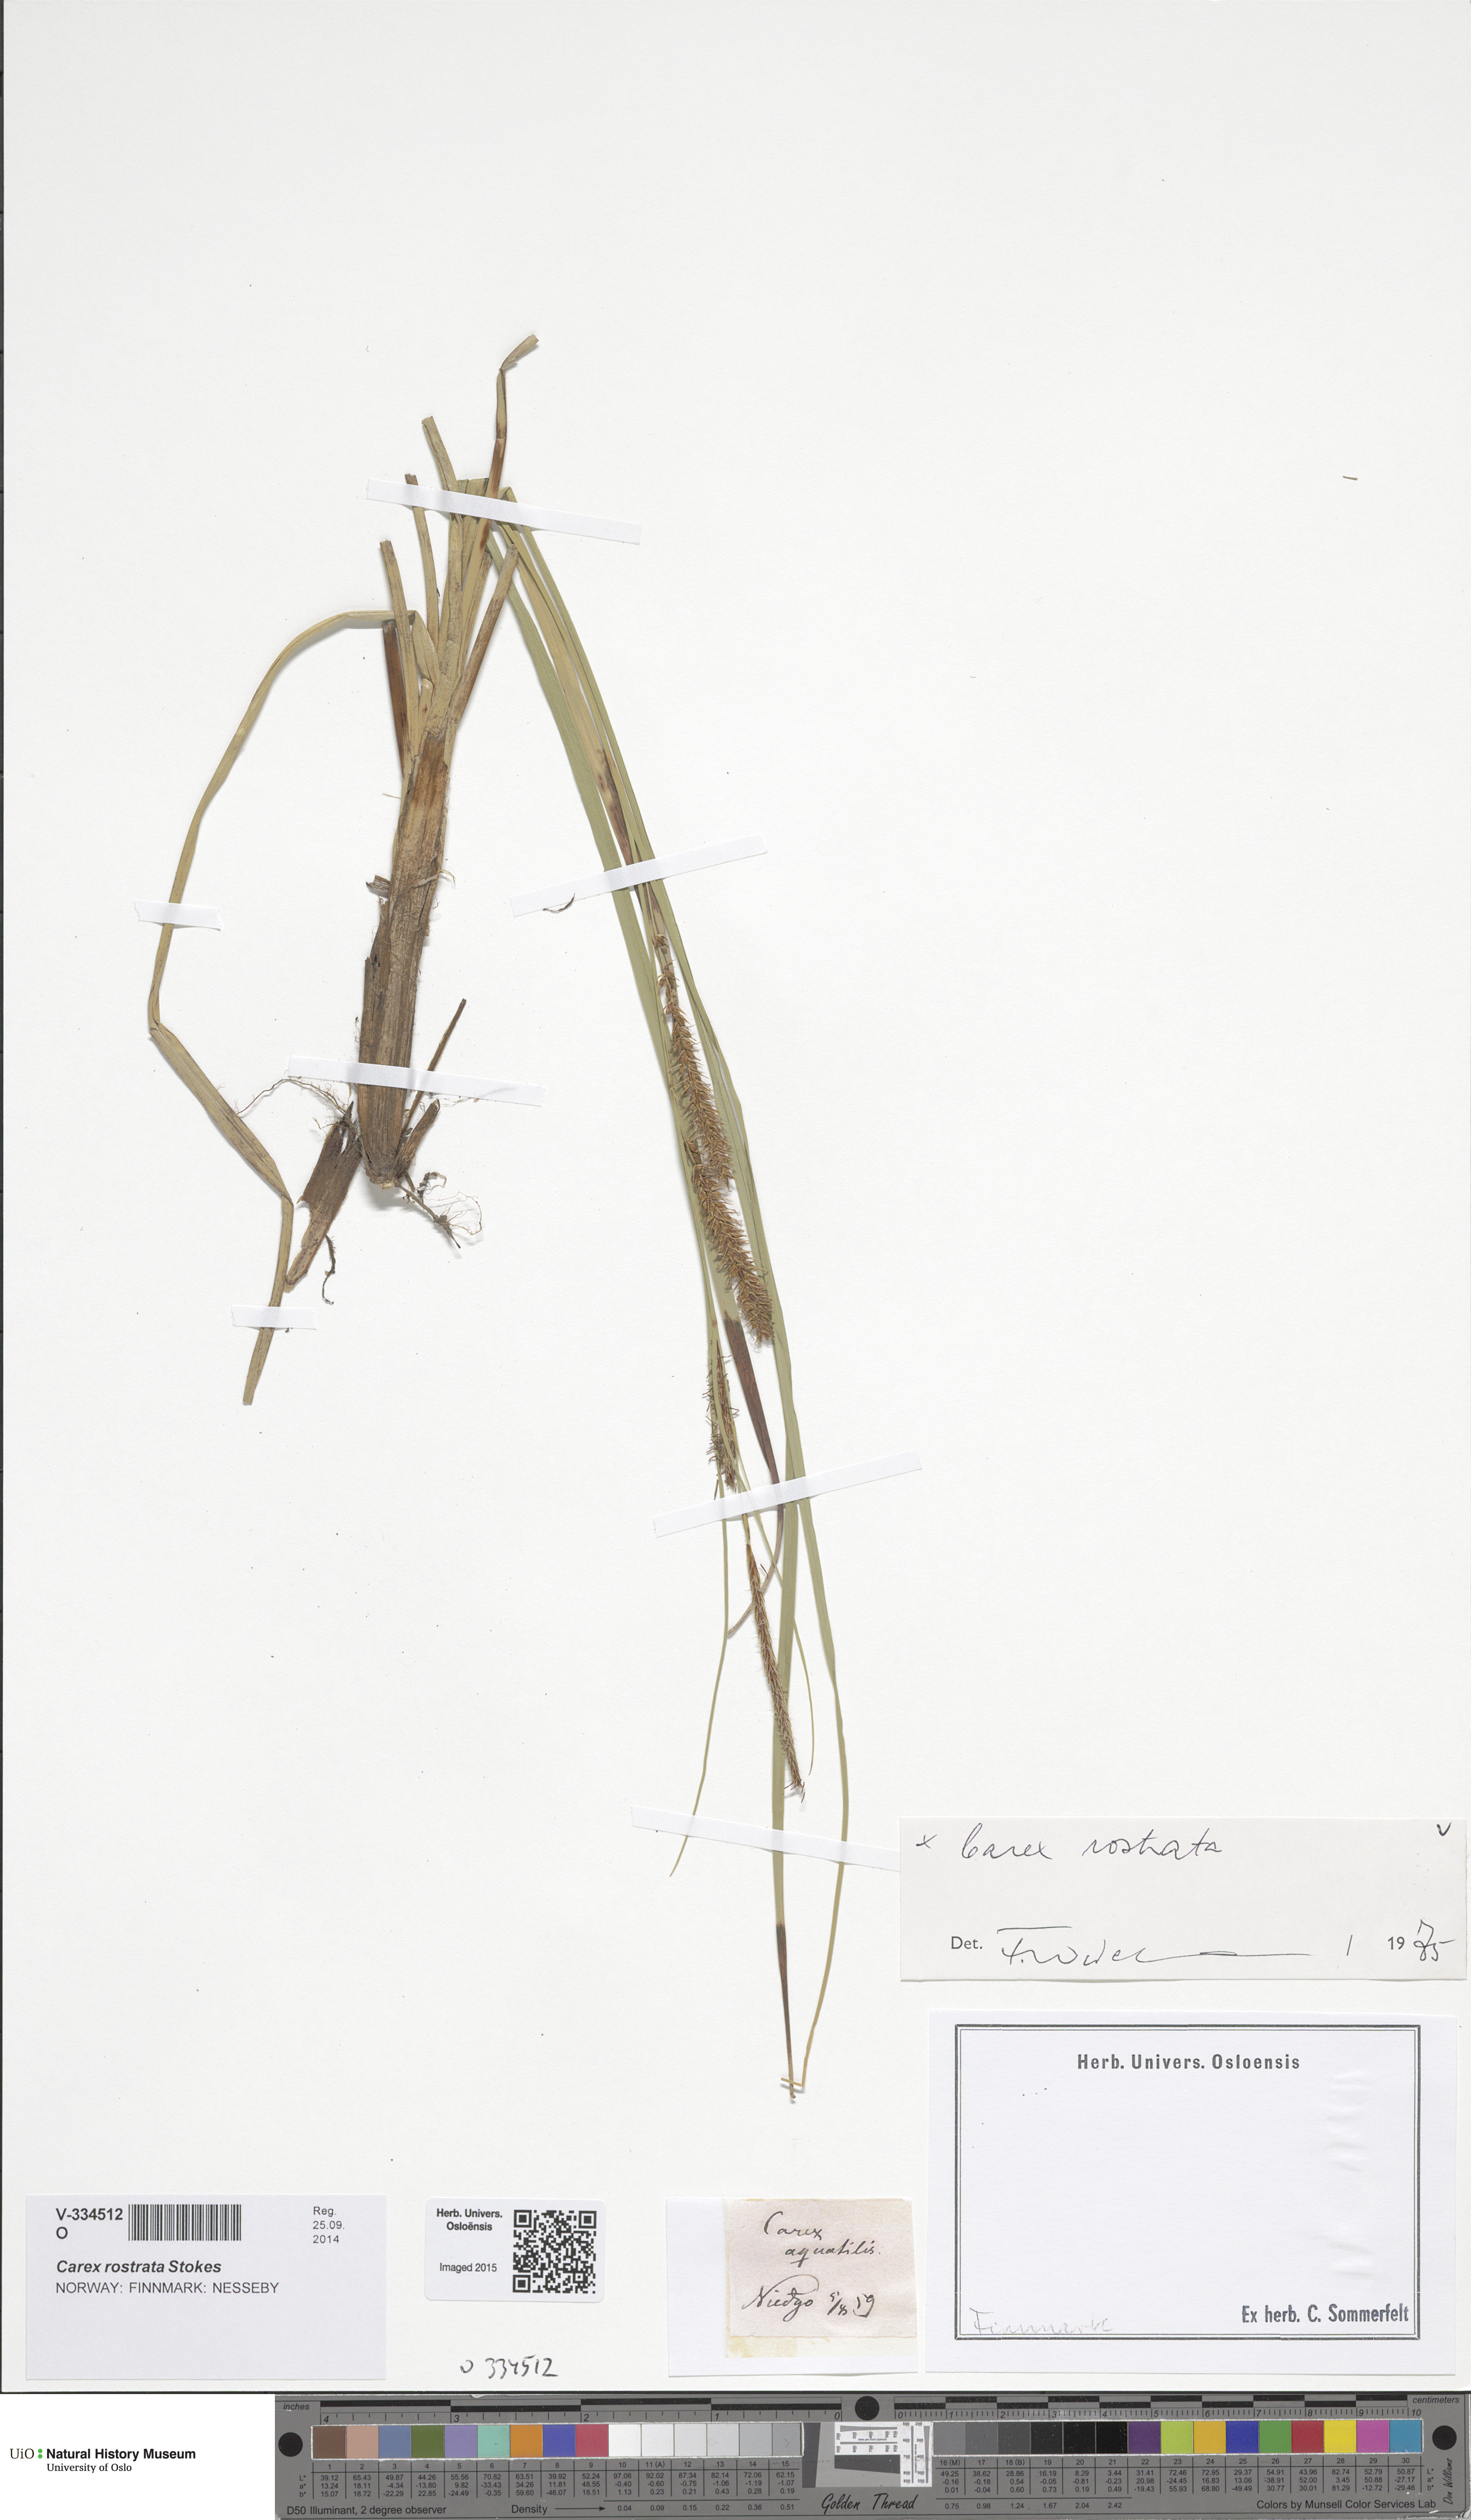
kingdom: Plantae
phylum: Tracheophyta
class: Liliopsida
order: Poales
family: Cyperaceae
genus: Carex
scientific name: Carex rostrata
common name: Bottle sedge
